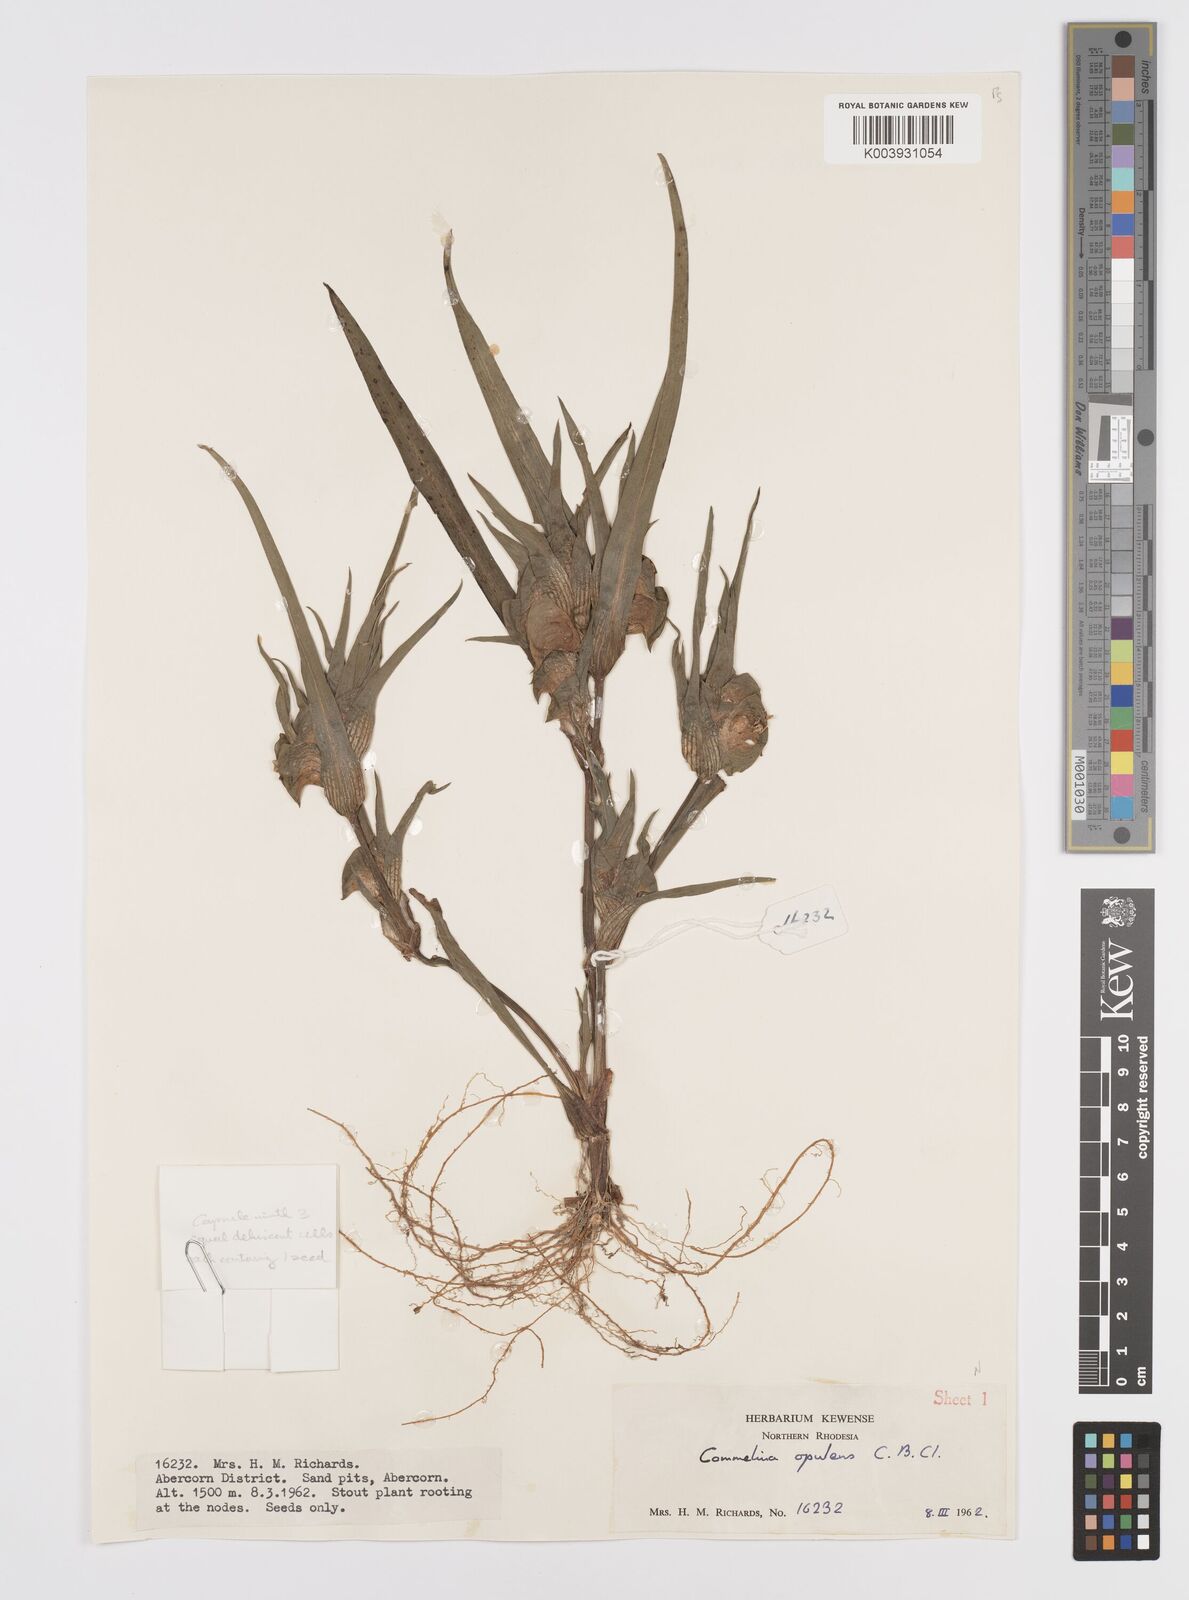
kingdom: Plantae
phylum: Tracheophyta
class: Liliopsida
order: Commelinales
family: Commelinaceae
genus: Commelina
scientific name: Commelina aspera
